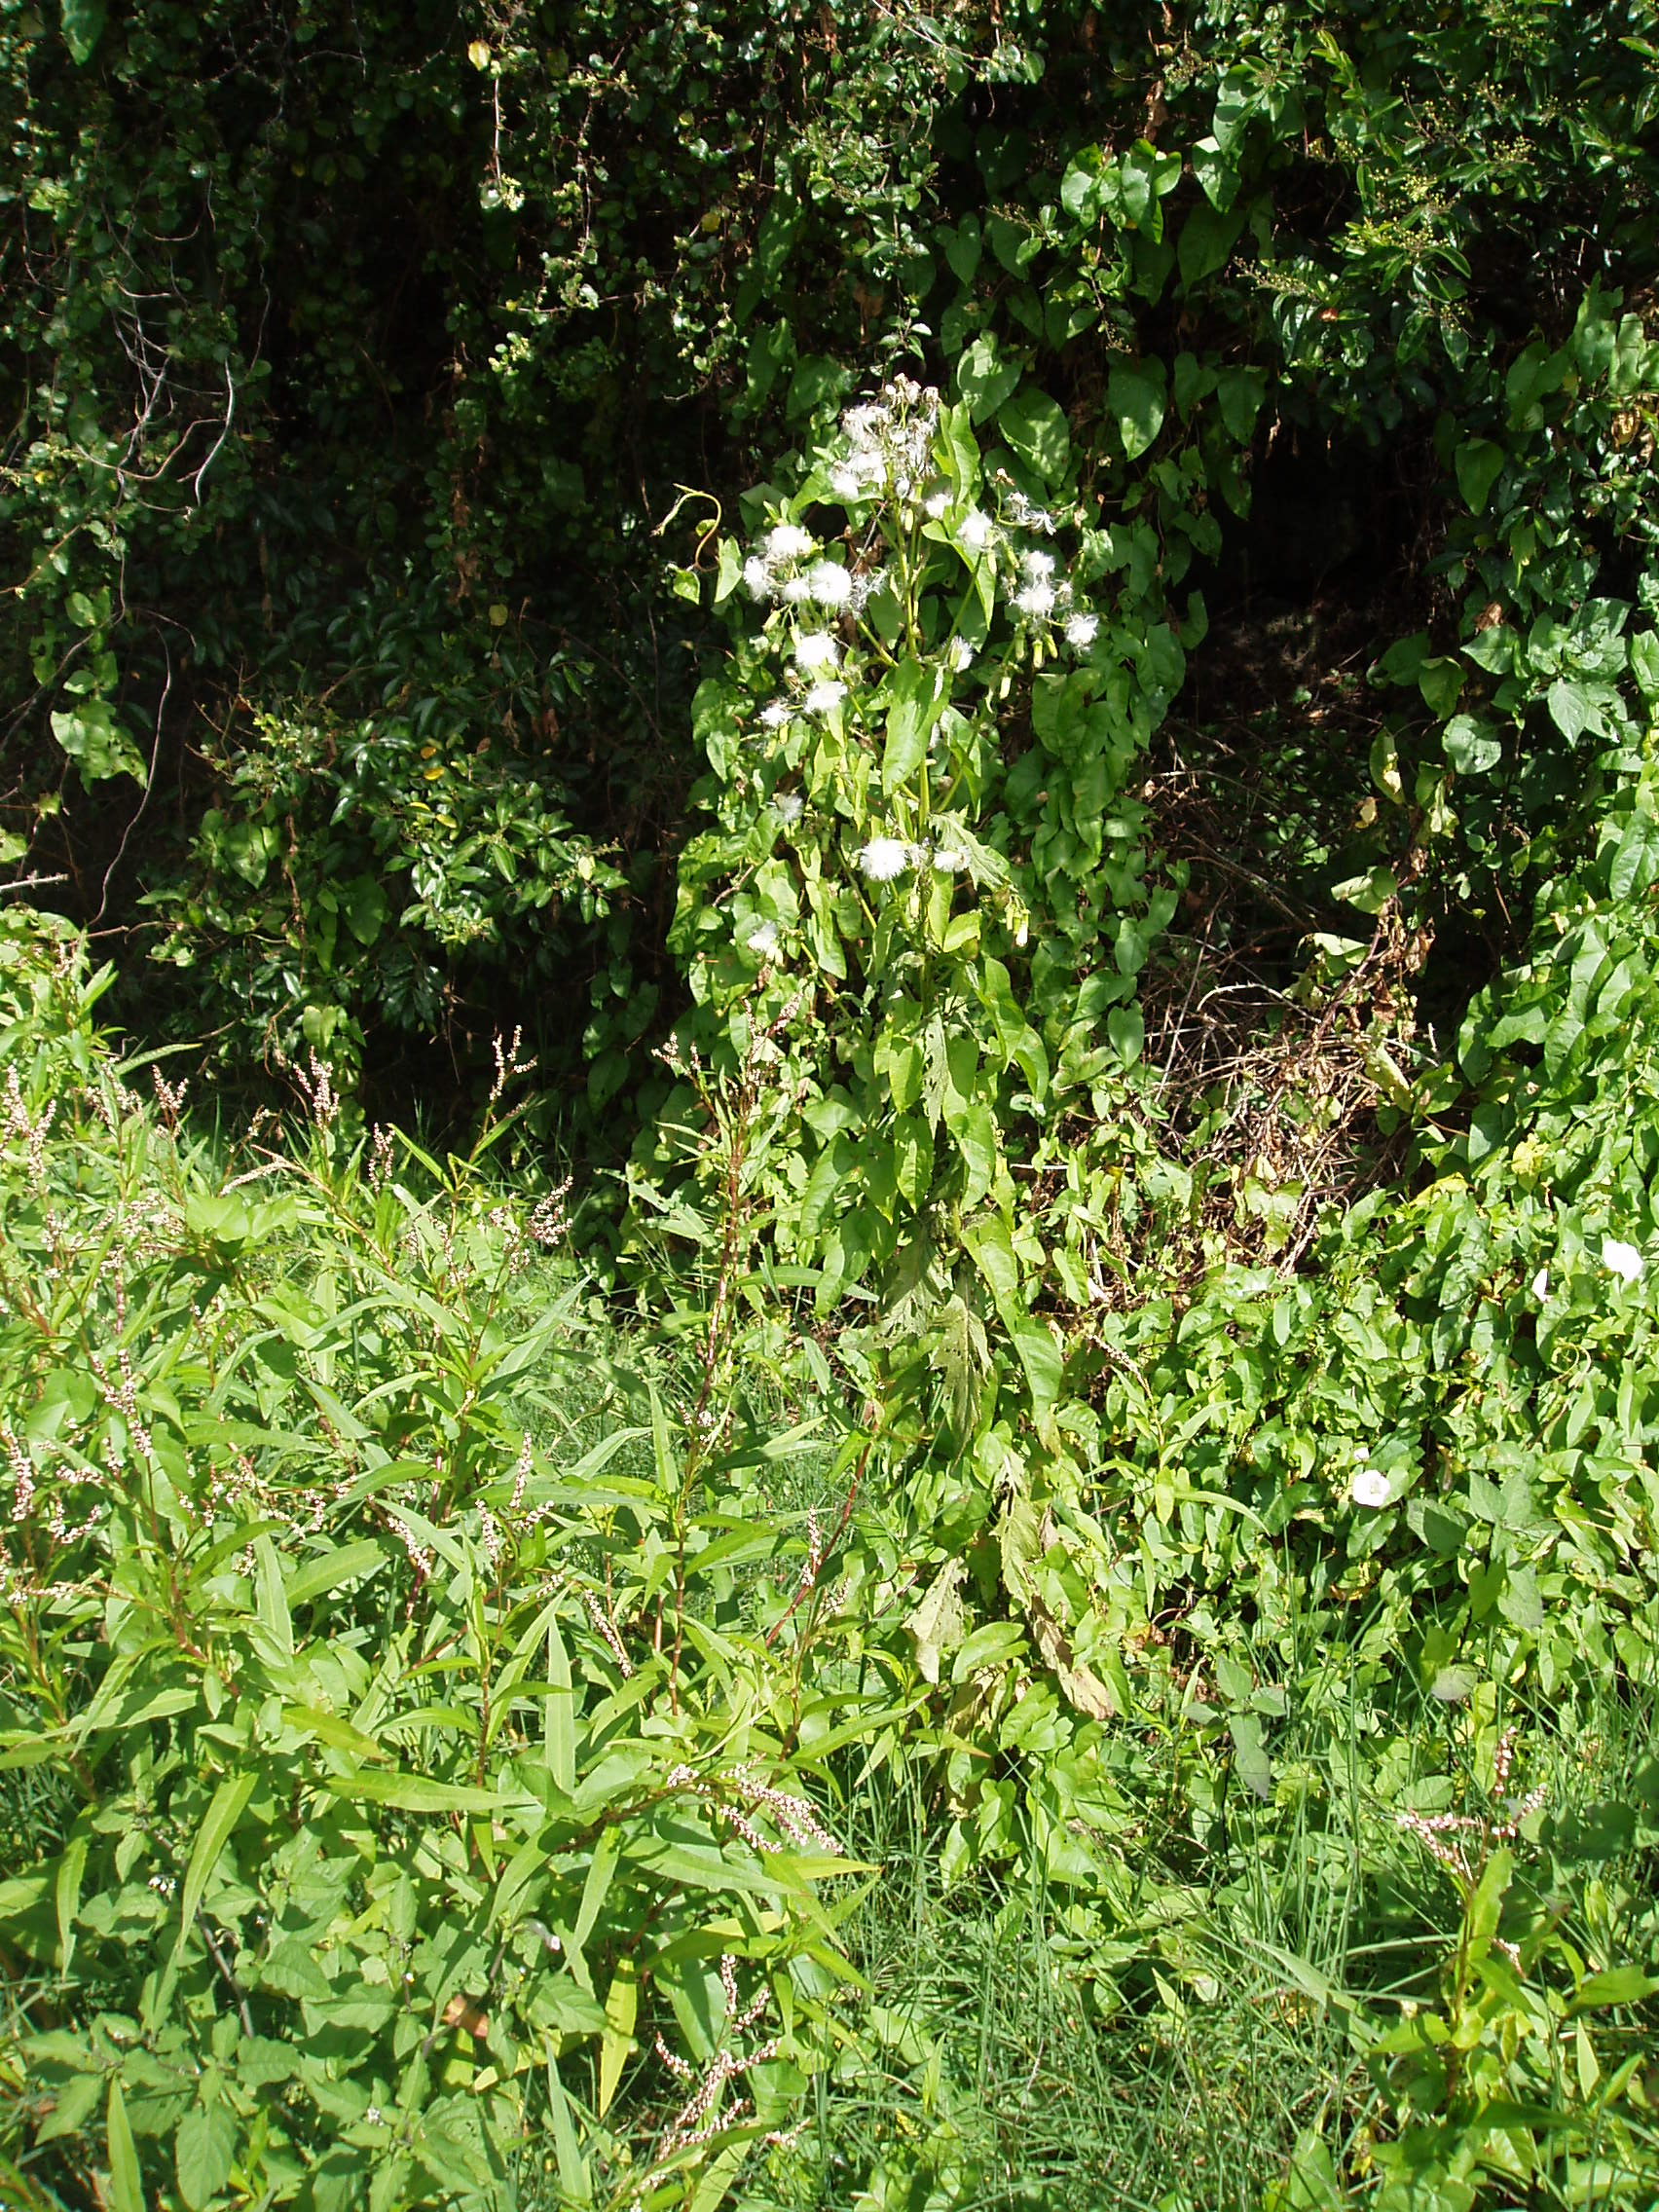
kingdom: Plantae
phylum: Tracheophyta
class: Magnoliopsida
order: Asterales
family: Asteraceae
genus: Erechtites
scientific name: Erechtites hieraciifolius
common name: American burnweed
